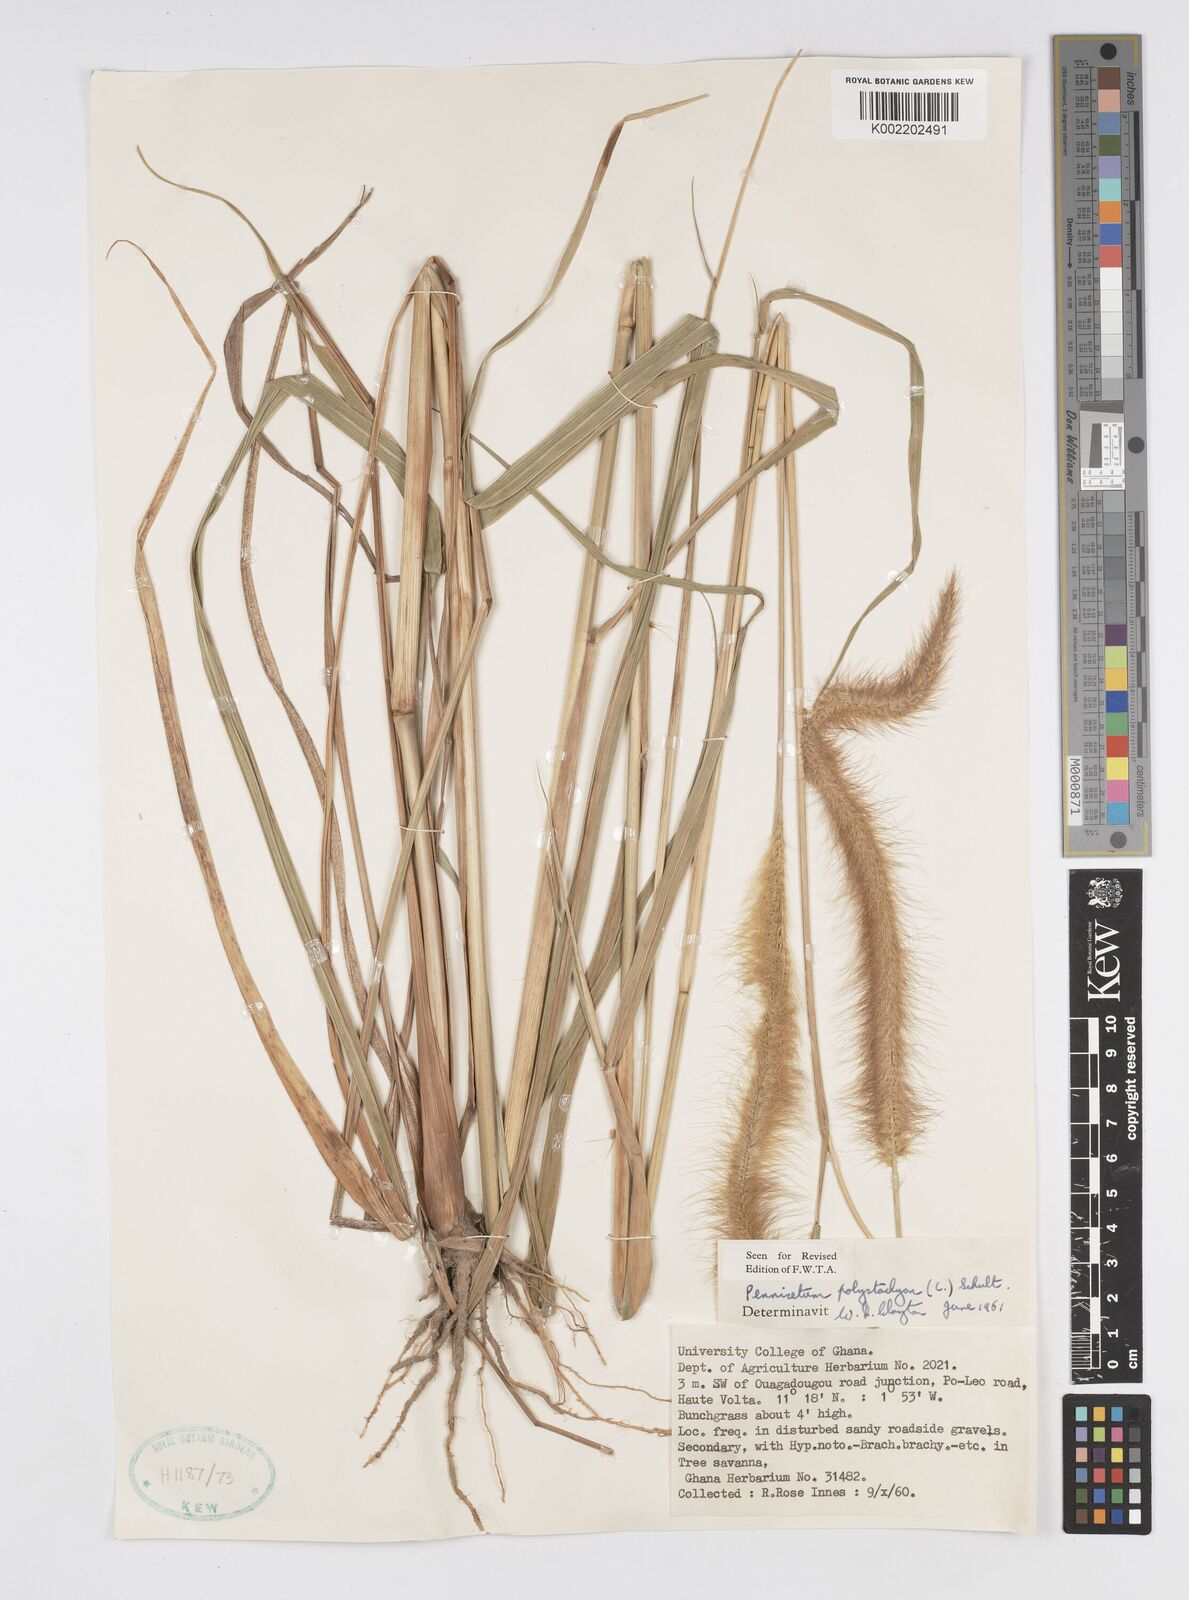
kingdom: Plantae
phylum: Tracheophyta
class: Liliopsida
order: Poales
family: Poaceae
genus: Setaria
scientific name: Setaria parviflora
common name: Knotroot bristle-grass
